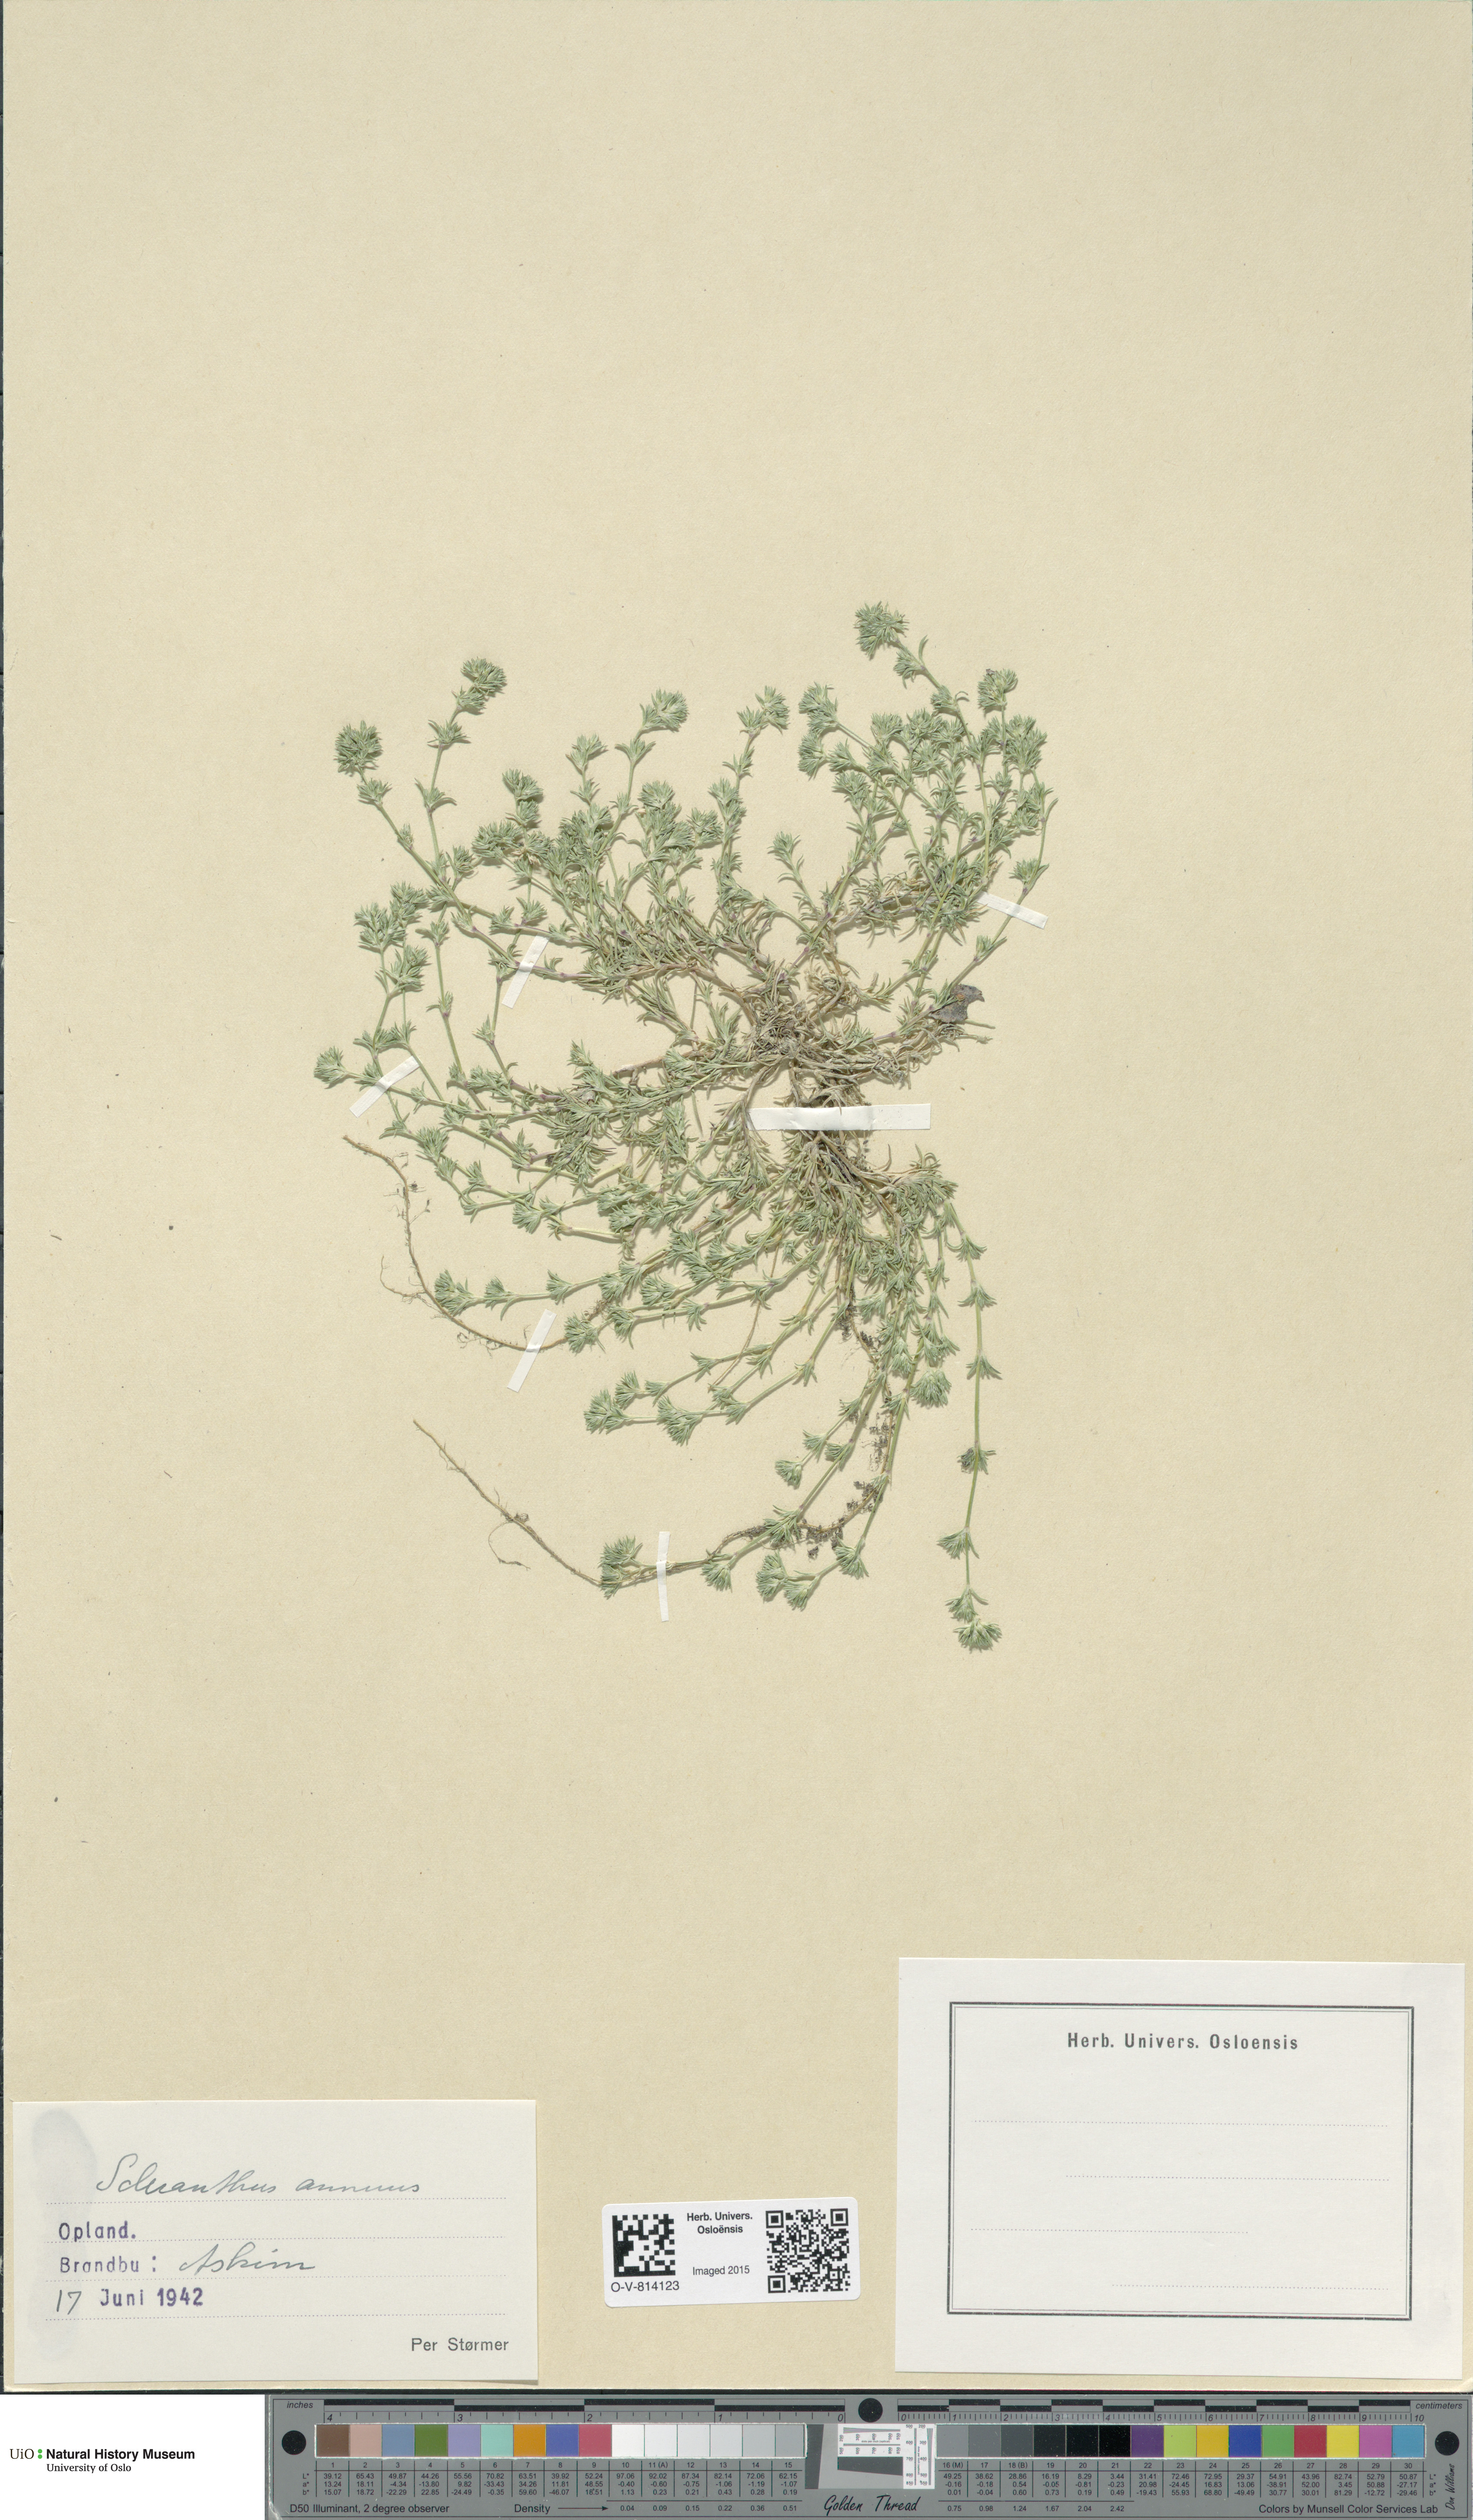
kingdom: Plantae
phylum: Tracheophyta
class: Magnoliopsida
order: Caryophyllales
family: Caryophyllaceae
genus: Scleranthus
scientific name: Scleranthus annuus
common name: Annual knawel
